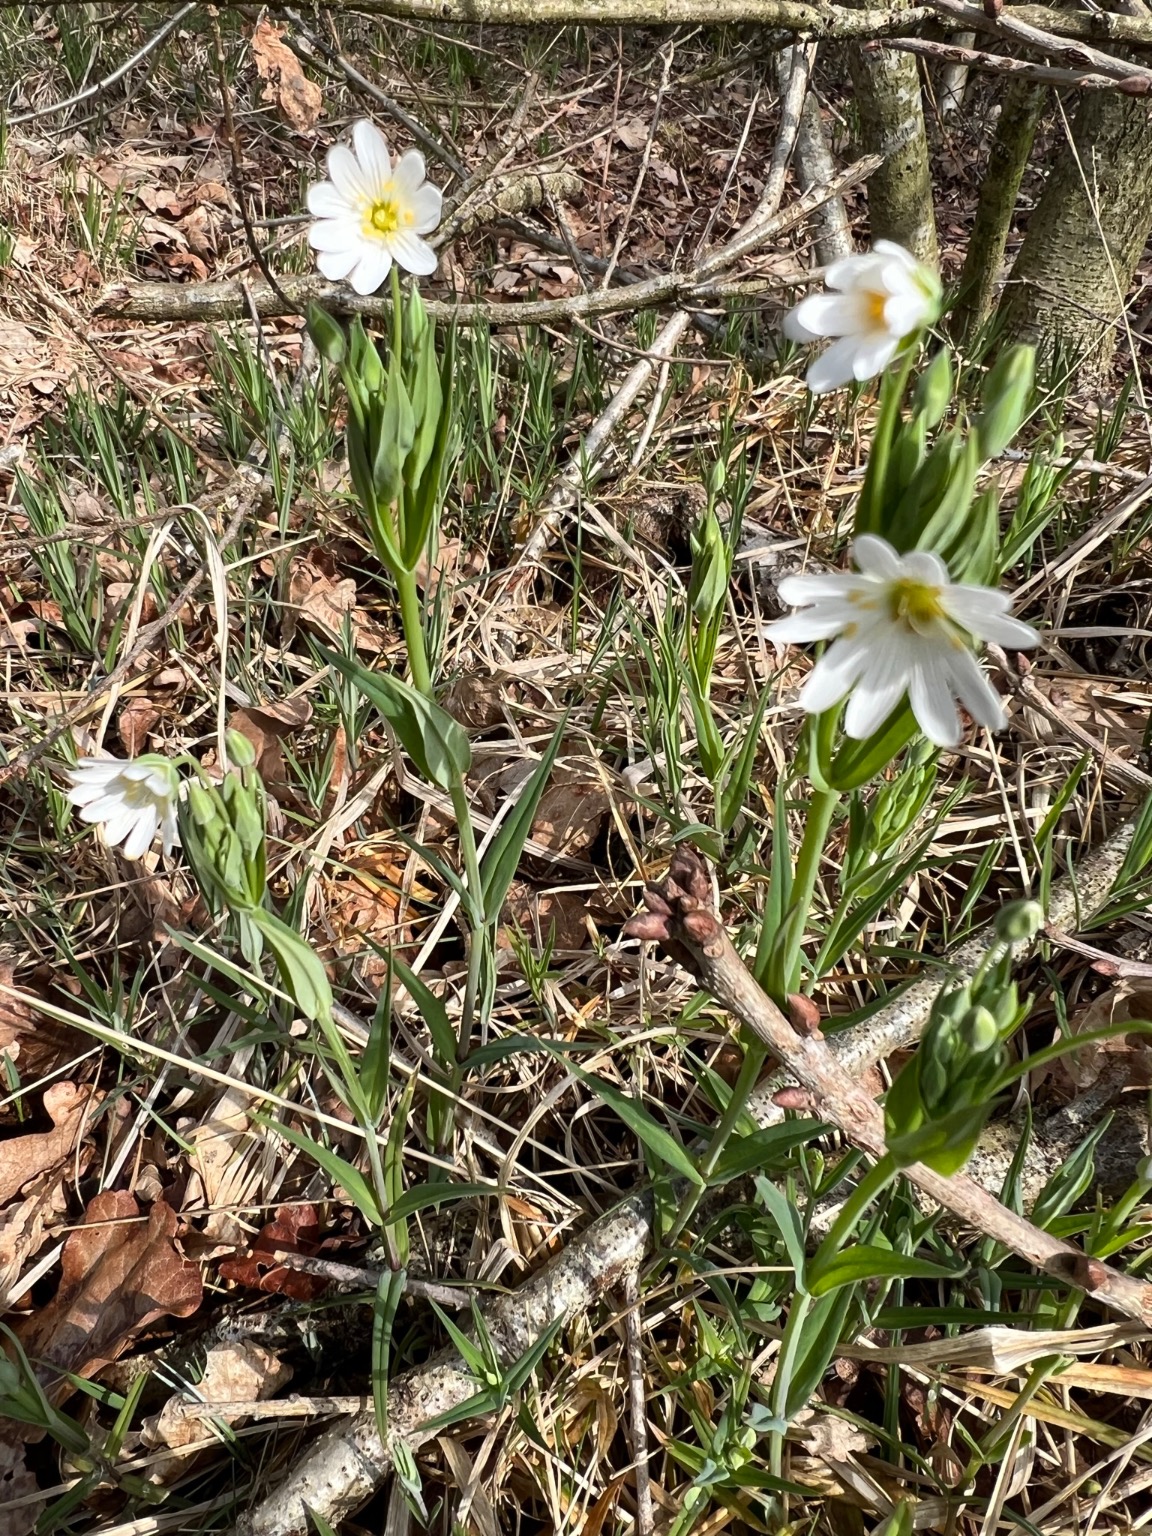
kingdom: Plantae
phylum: Tracheophyta
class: Magnoliopsida
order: Caryophyllales
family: Caryophyllaceae
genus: Rabelera
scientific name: Rabelera holostea
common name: Stor fladstjerne
